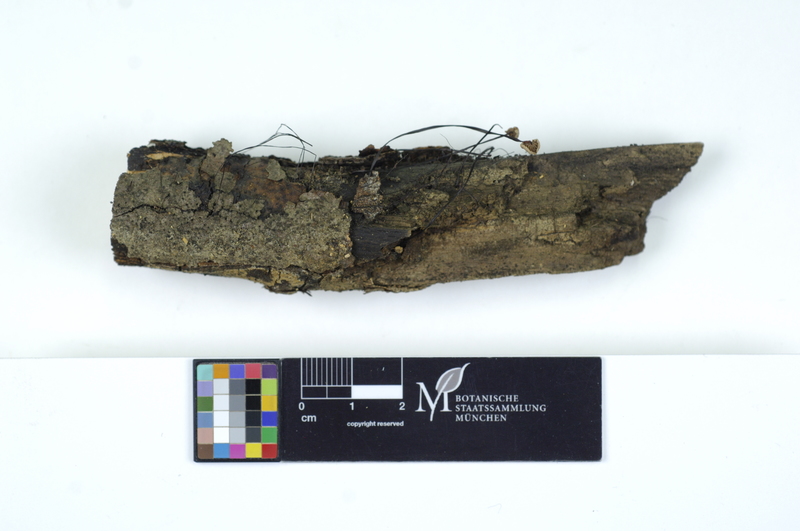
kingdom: Fungi
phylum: Basidiomycota
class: Agaricomycetes
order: Agaricales
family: Omphalotaceae
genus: Gymnopus
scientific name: Gymnopus androsaceus
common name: Horse-hair fungus
